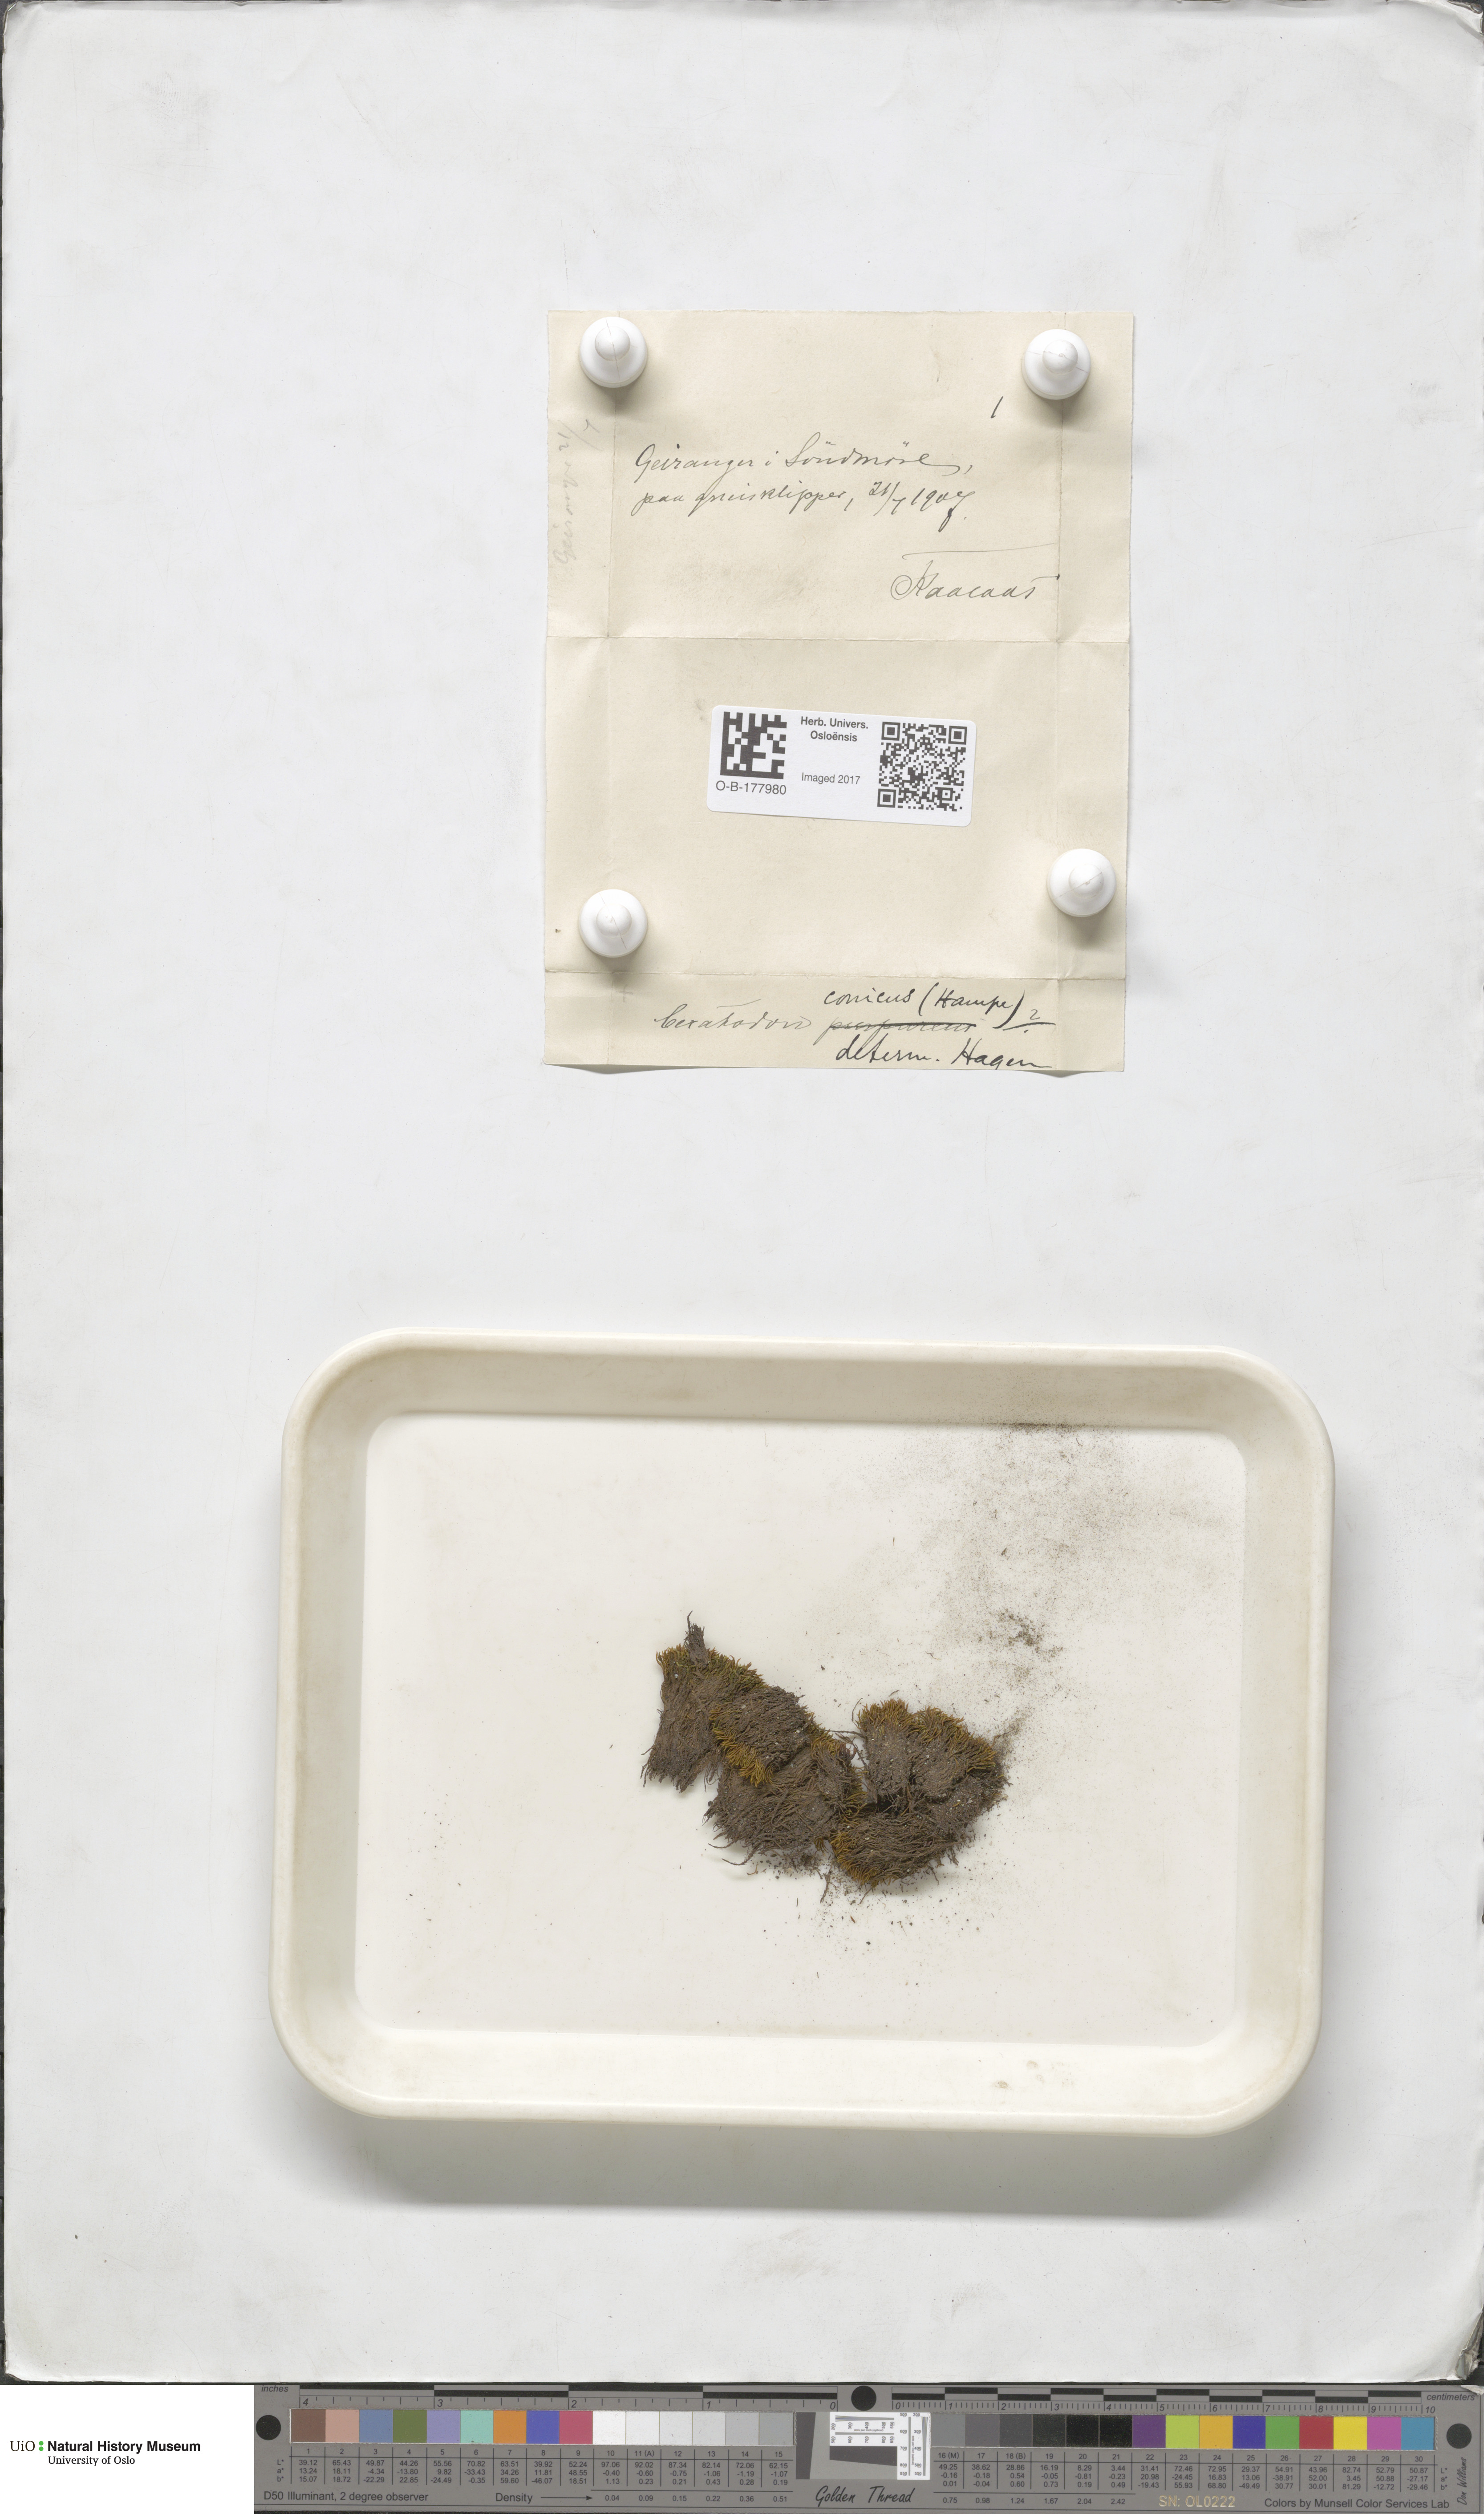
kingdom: Plantae
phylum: Bryophyta
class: Bryopsida
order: Dicranales
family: Ditrichaceae
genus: Ceratodon
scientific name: Ceratodon purpureus
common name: Redshank
